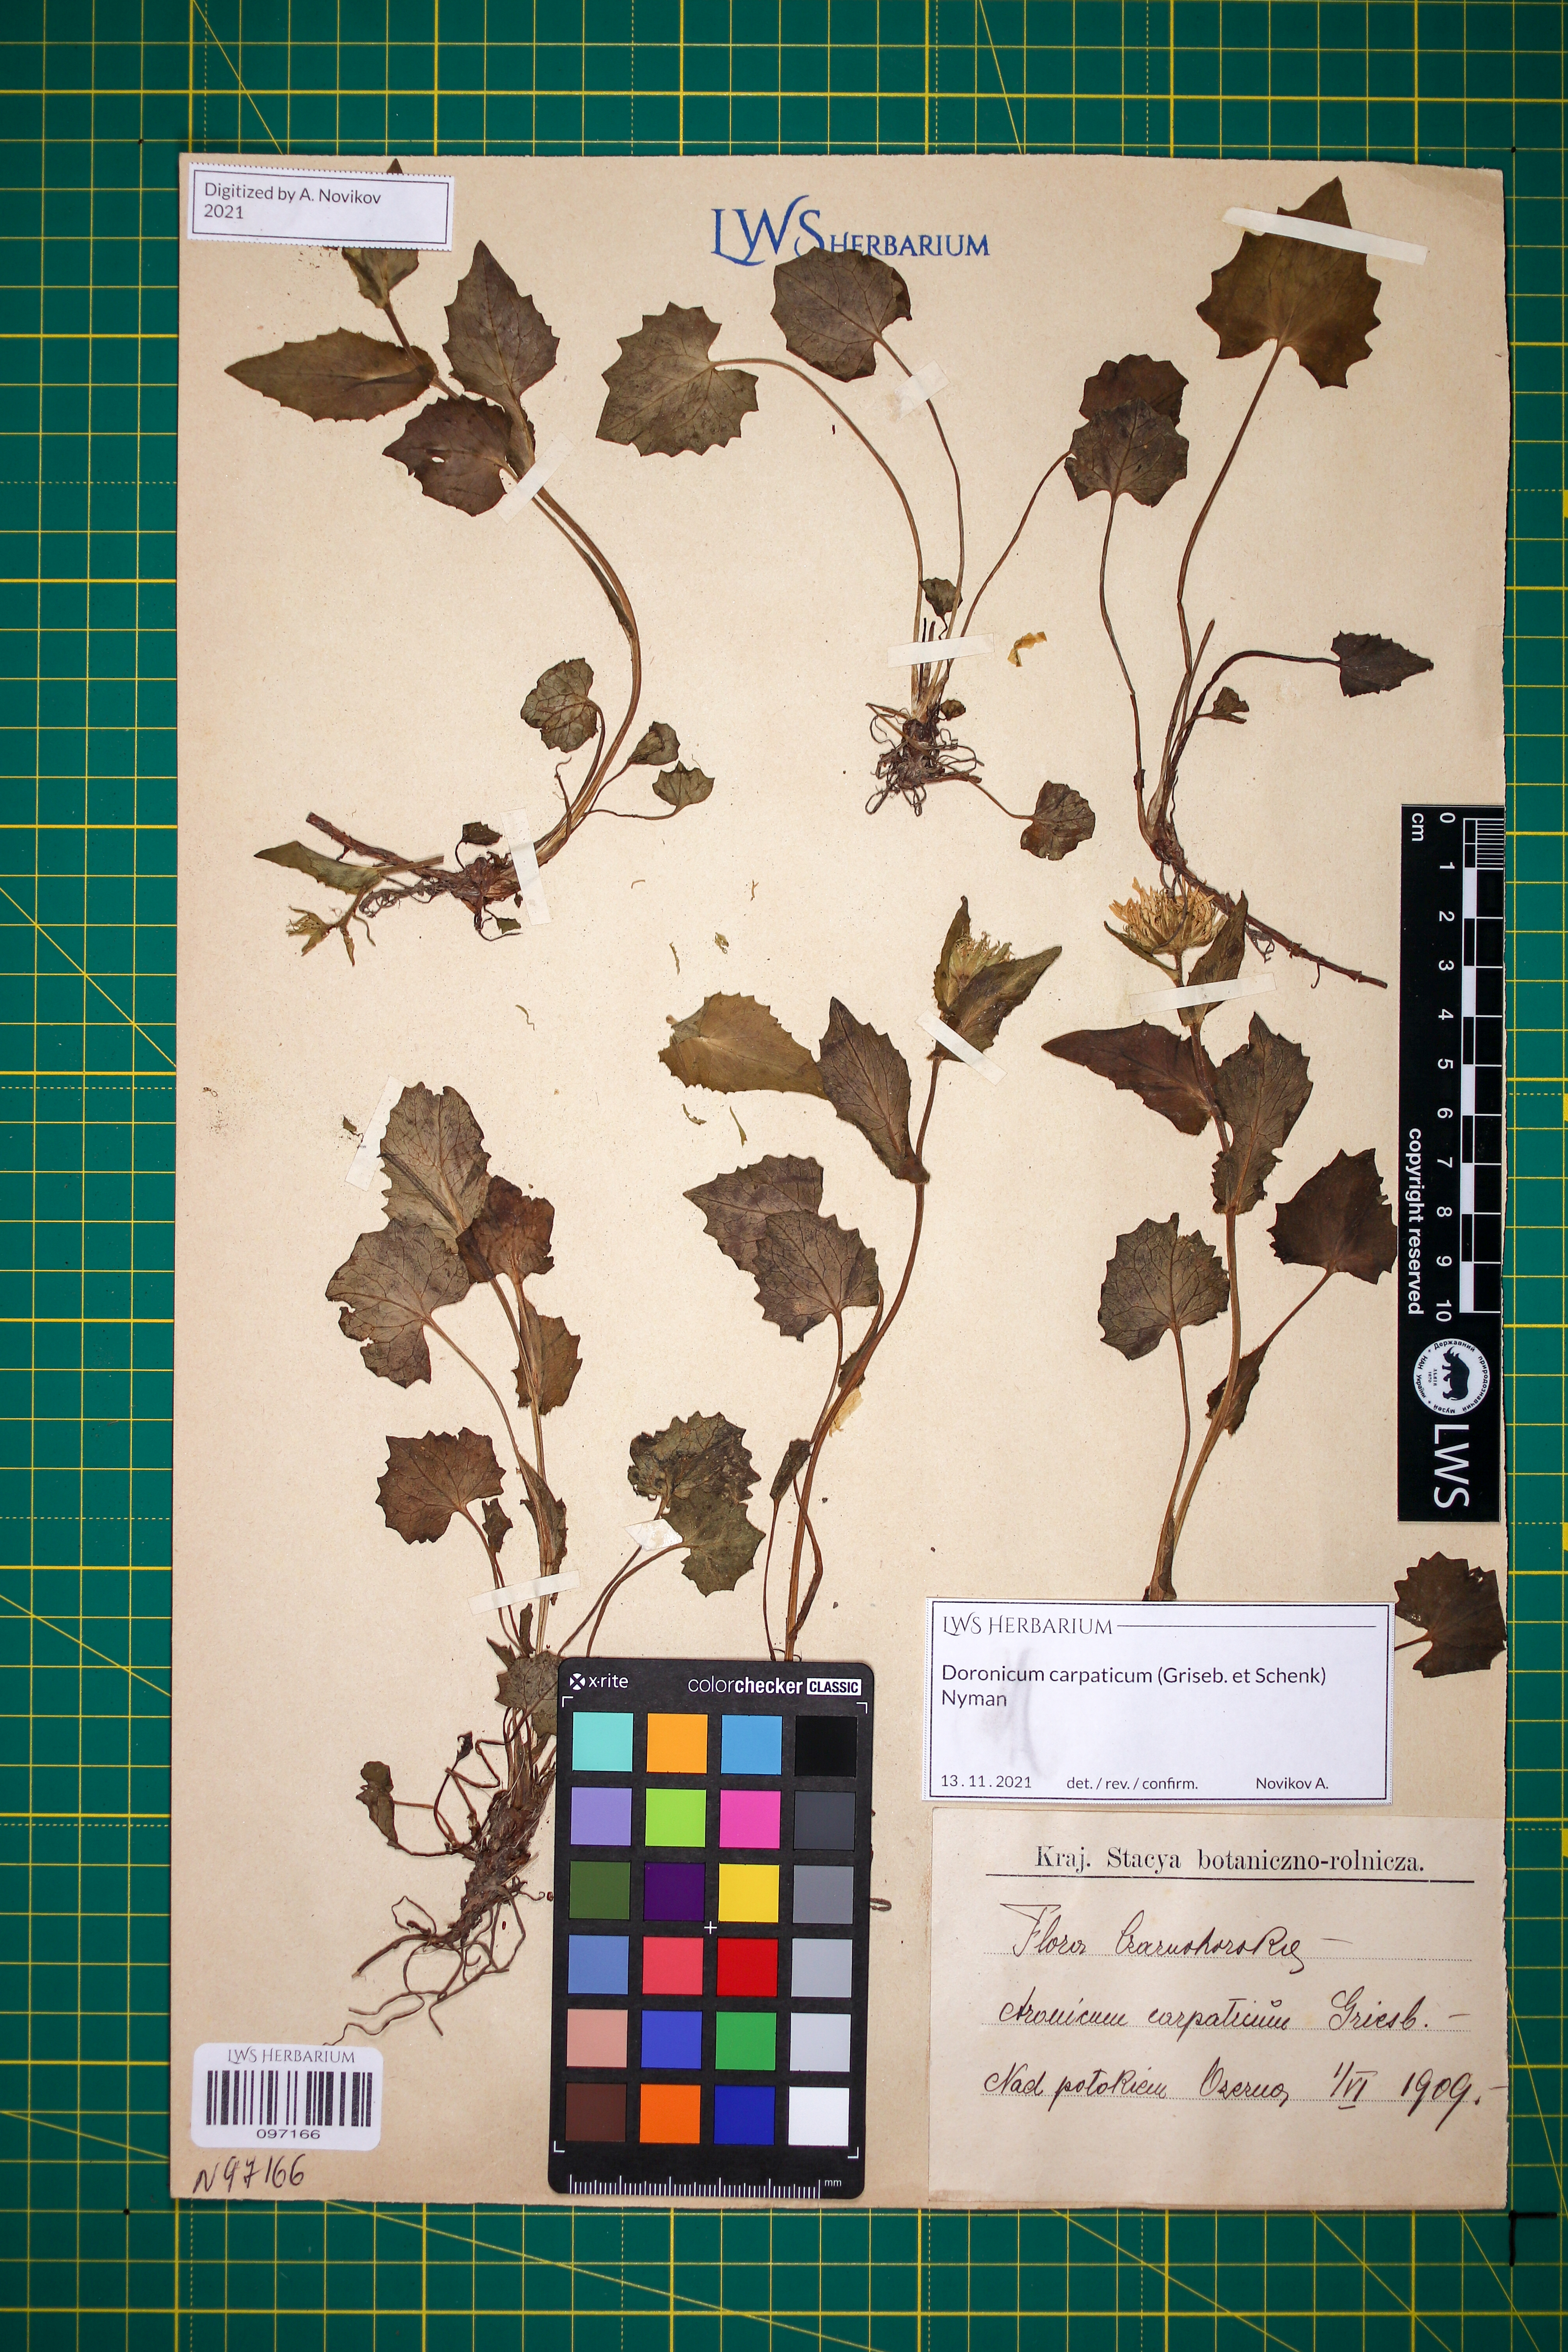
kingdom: Plantae
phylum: Tracheophyta
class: Magnoliopsida
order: Asterales
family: Asteraceae
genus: Doronicum
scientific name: Doronicum carpaticum
